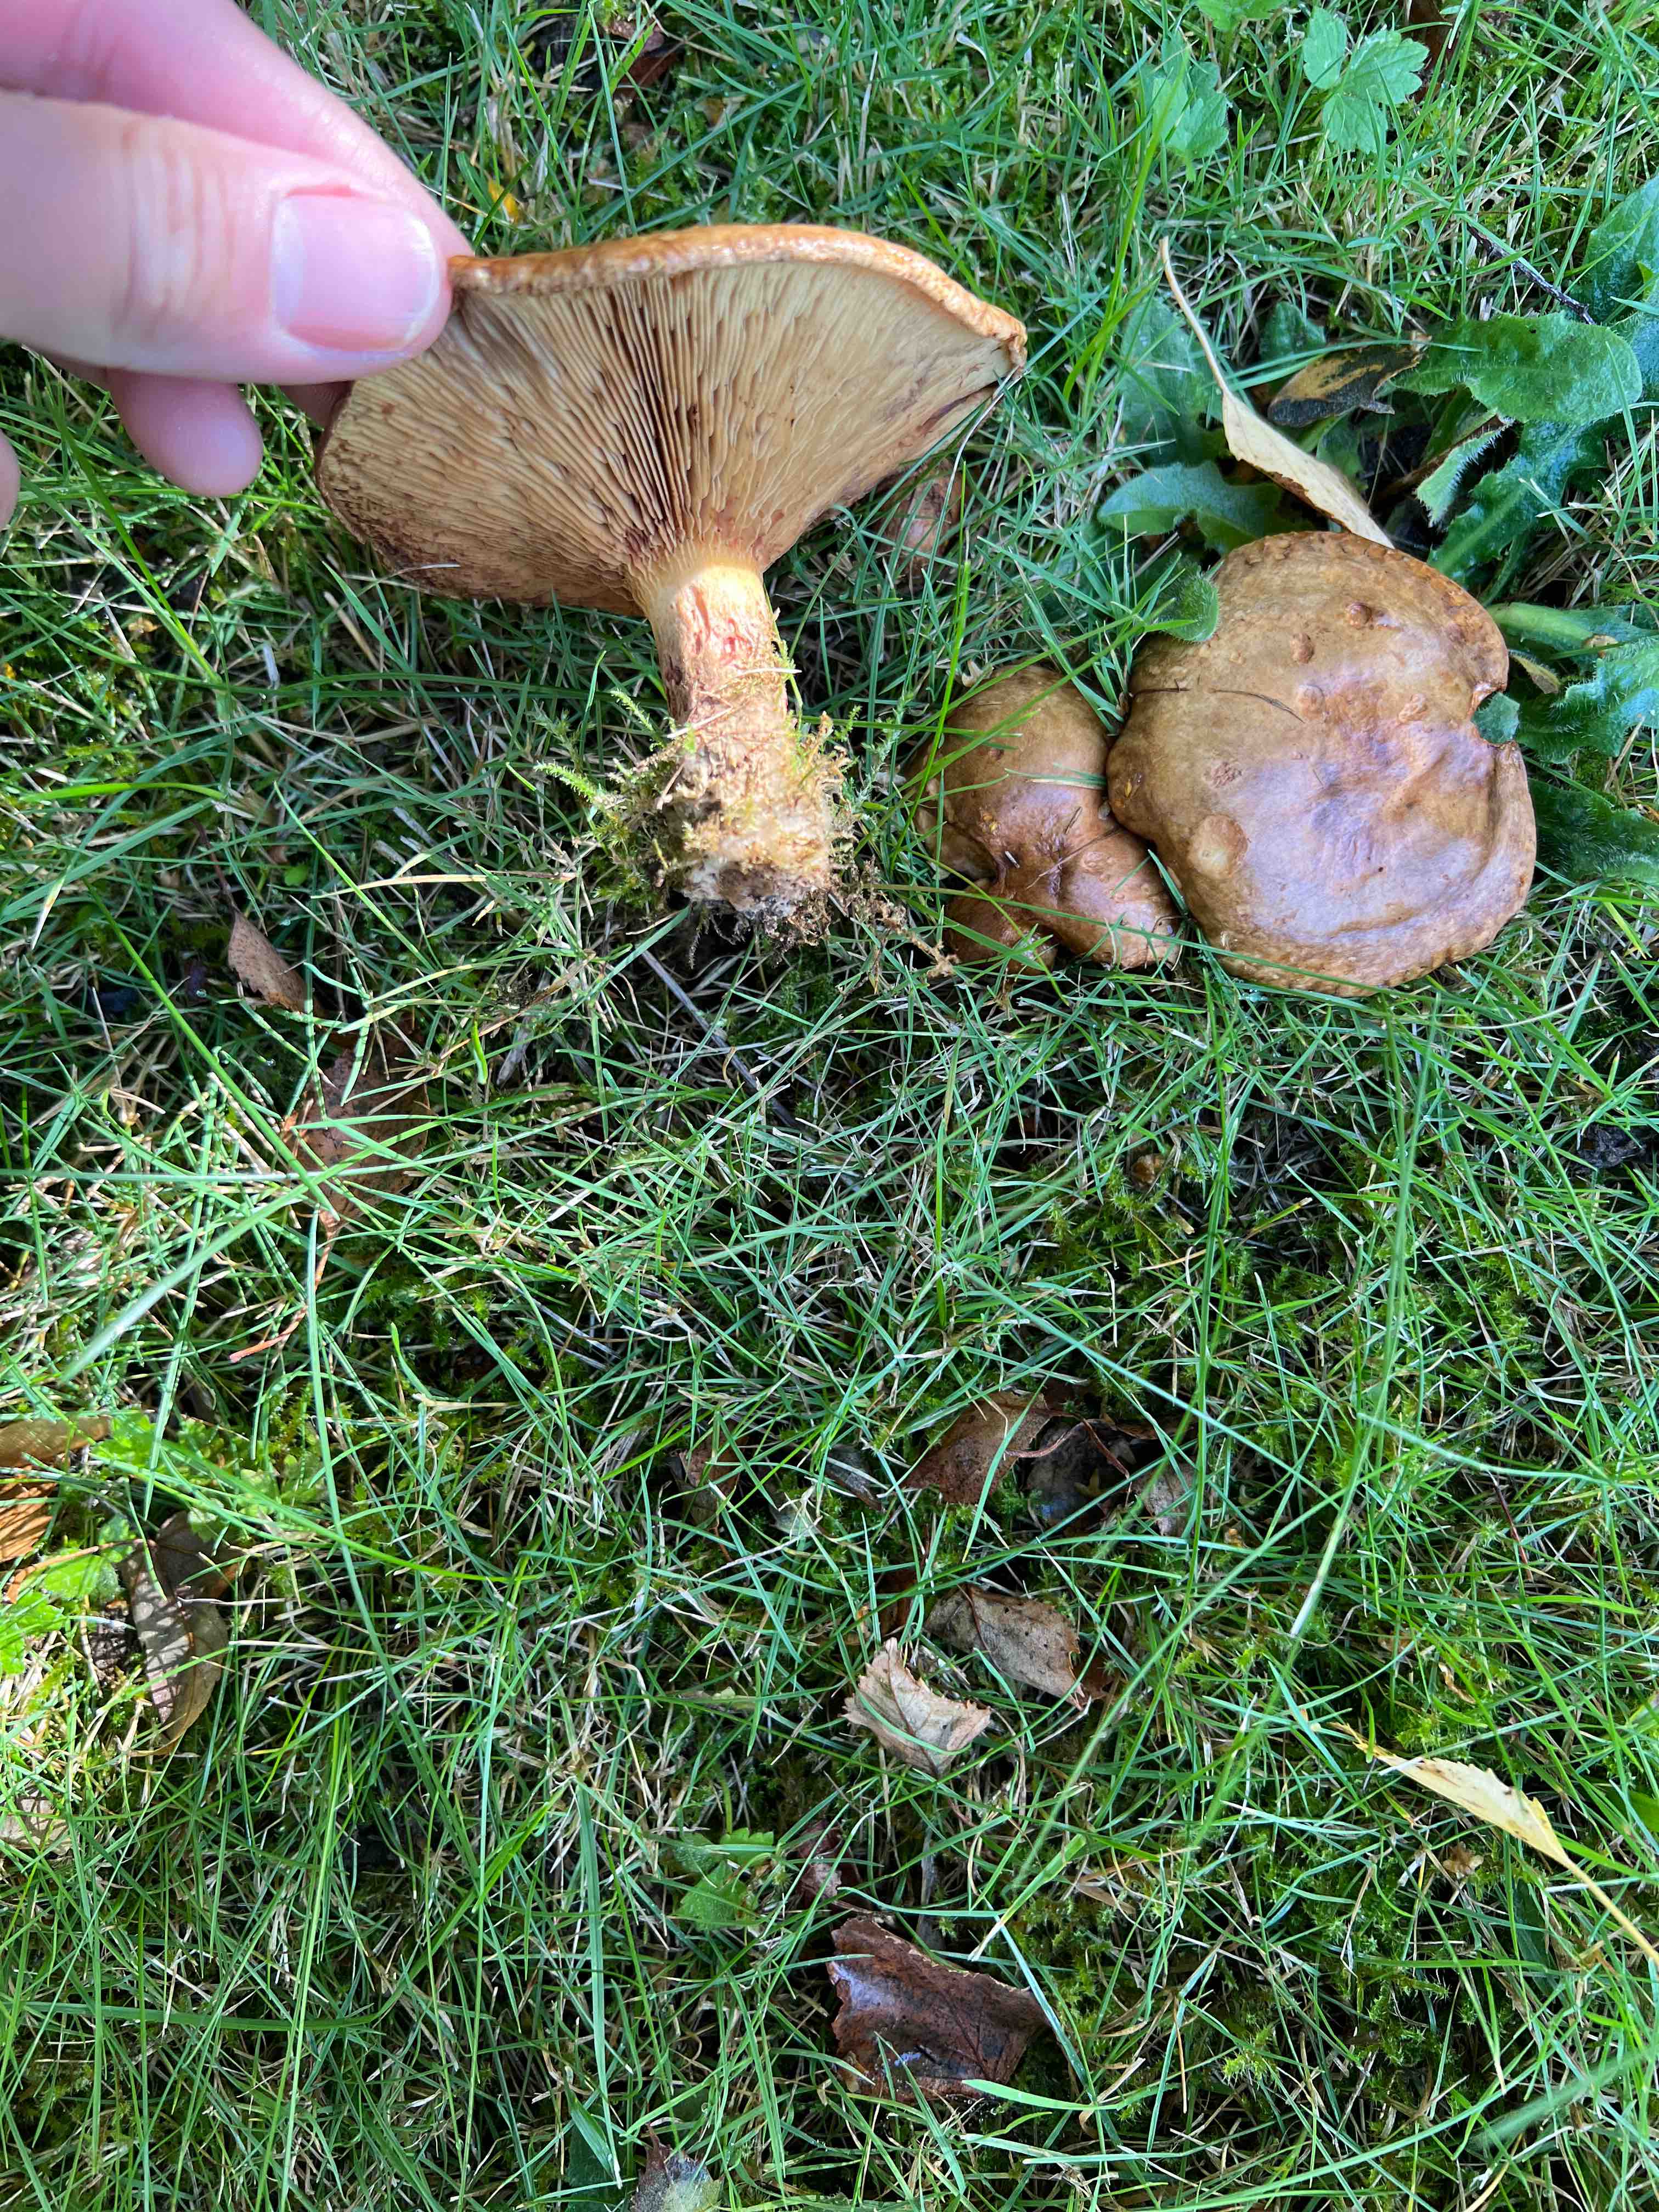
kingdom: Fungi
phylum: Basidiomycota
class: Agaricomycetes
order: Boletales
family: Paxillaceae
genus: Paxillus
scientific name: Paxillus involutus
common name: almindelig netbladhat
